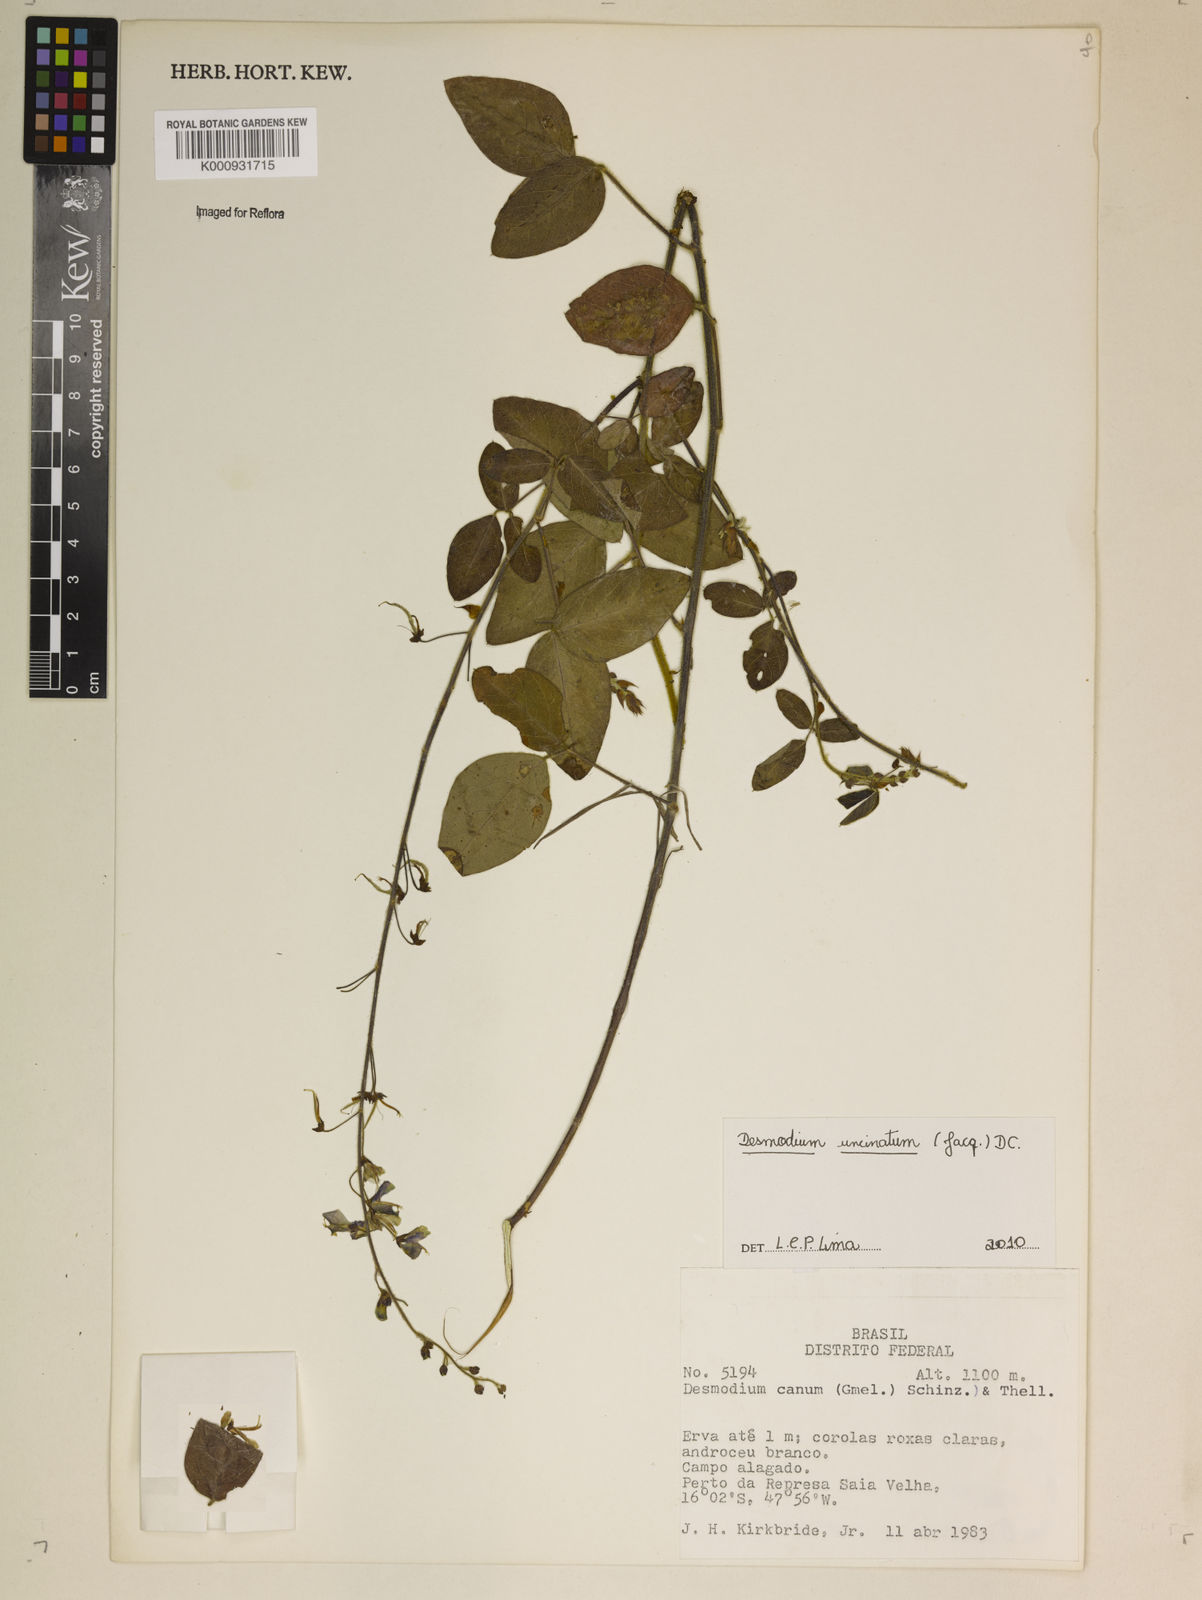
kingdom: Plantae
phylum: Tracheophyta
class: Magnoliopsida
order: Fabales
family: Fabaceae
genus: Desmodium
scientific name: Desmodium uncinatum
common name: Silverleaf desmodium
